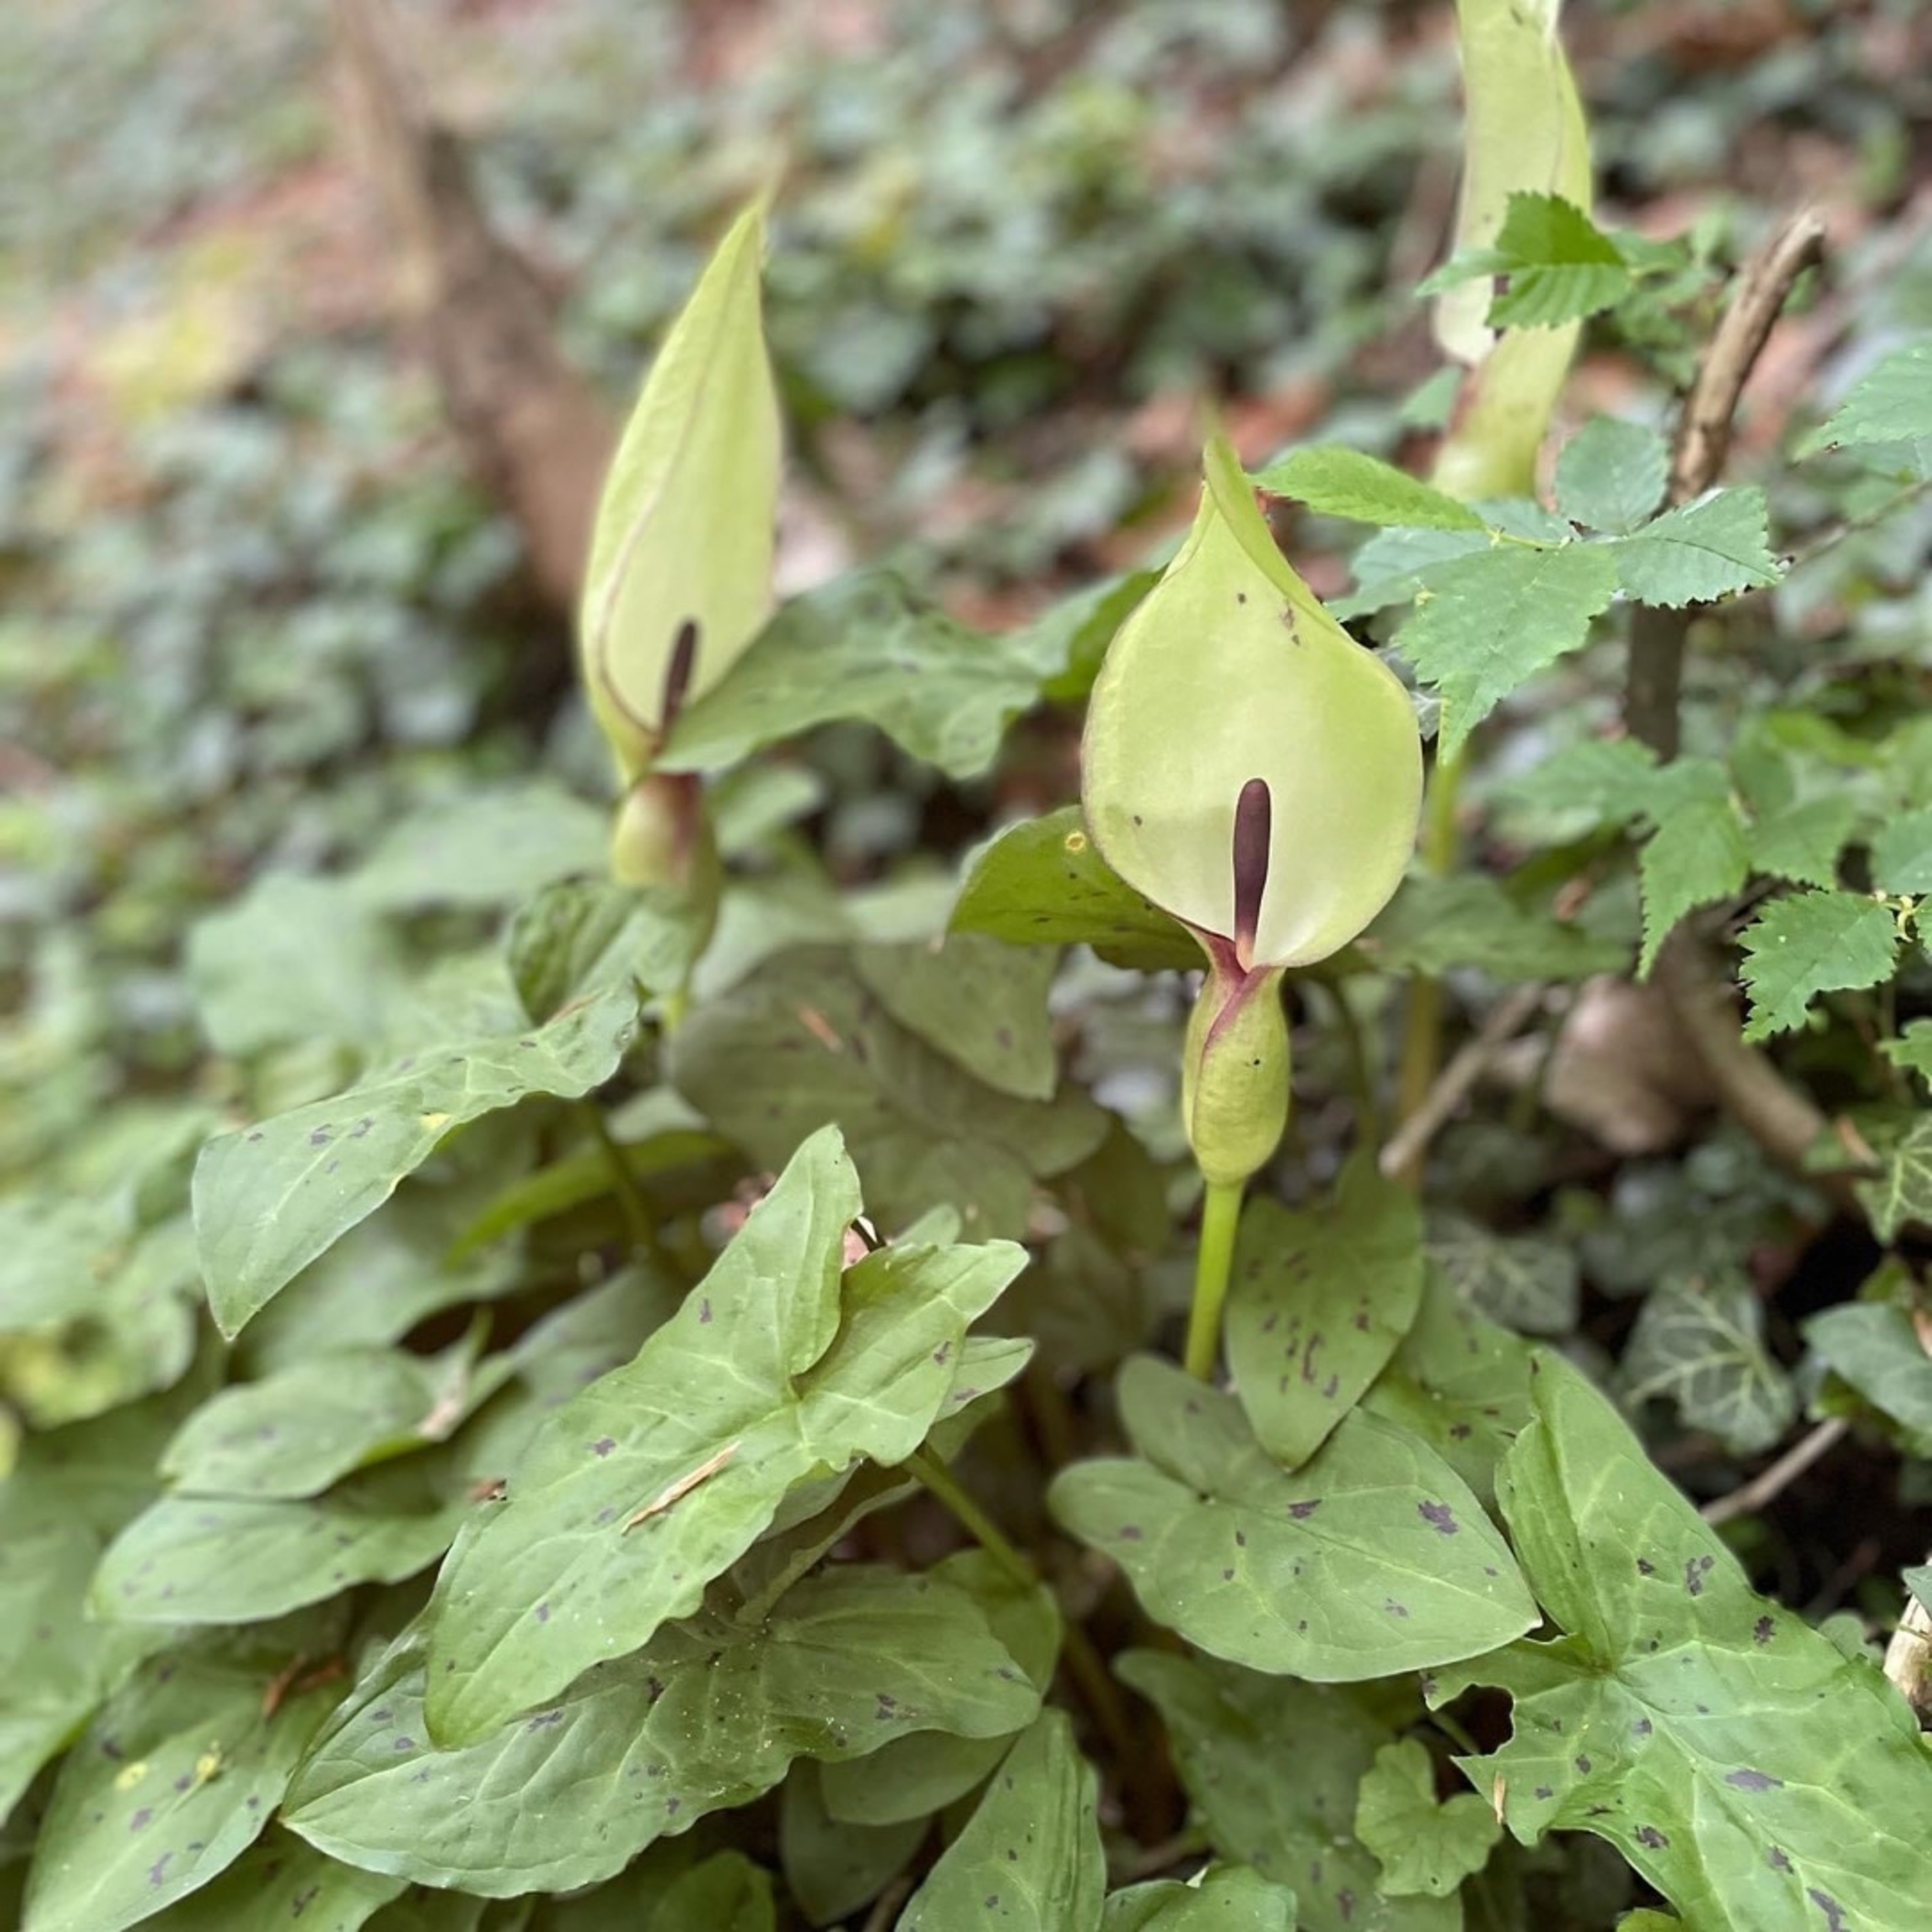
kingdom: Plantae
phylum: Tracheophyta
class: Liliopsida
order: Alismatales
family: Araceae
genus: Arum
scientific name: Arum maculatum
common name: Plettet arum
